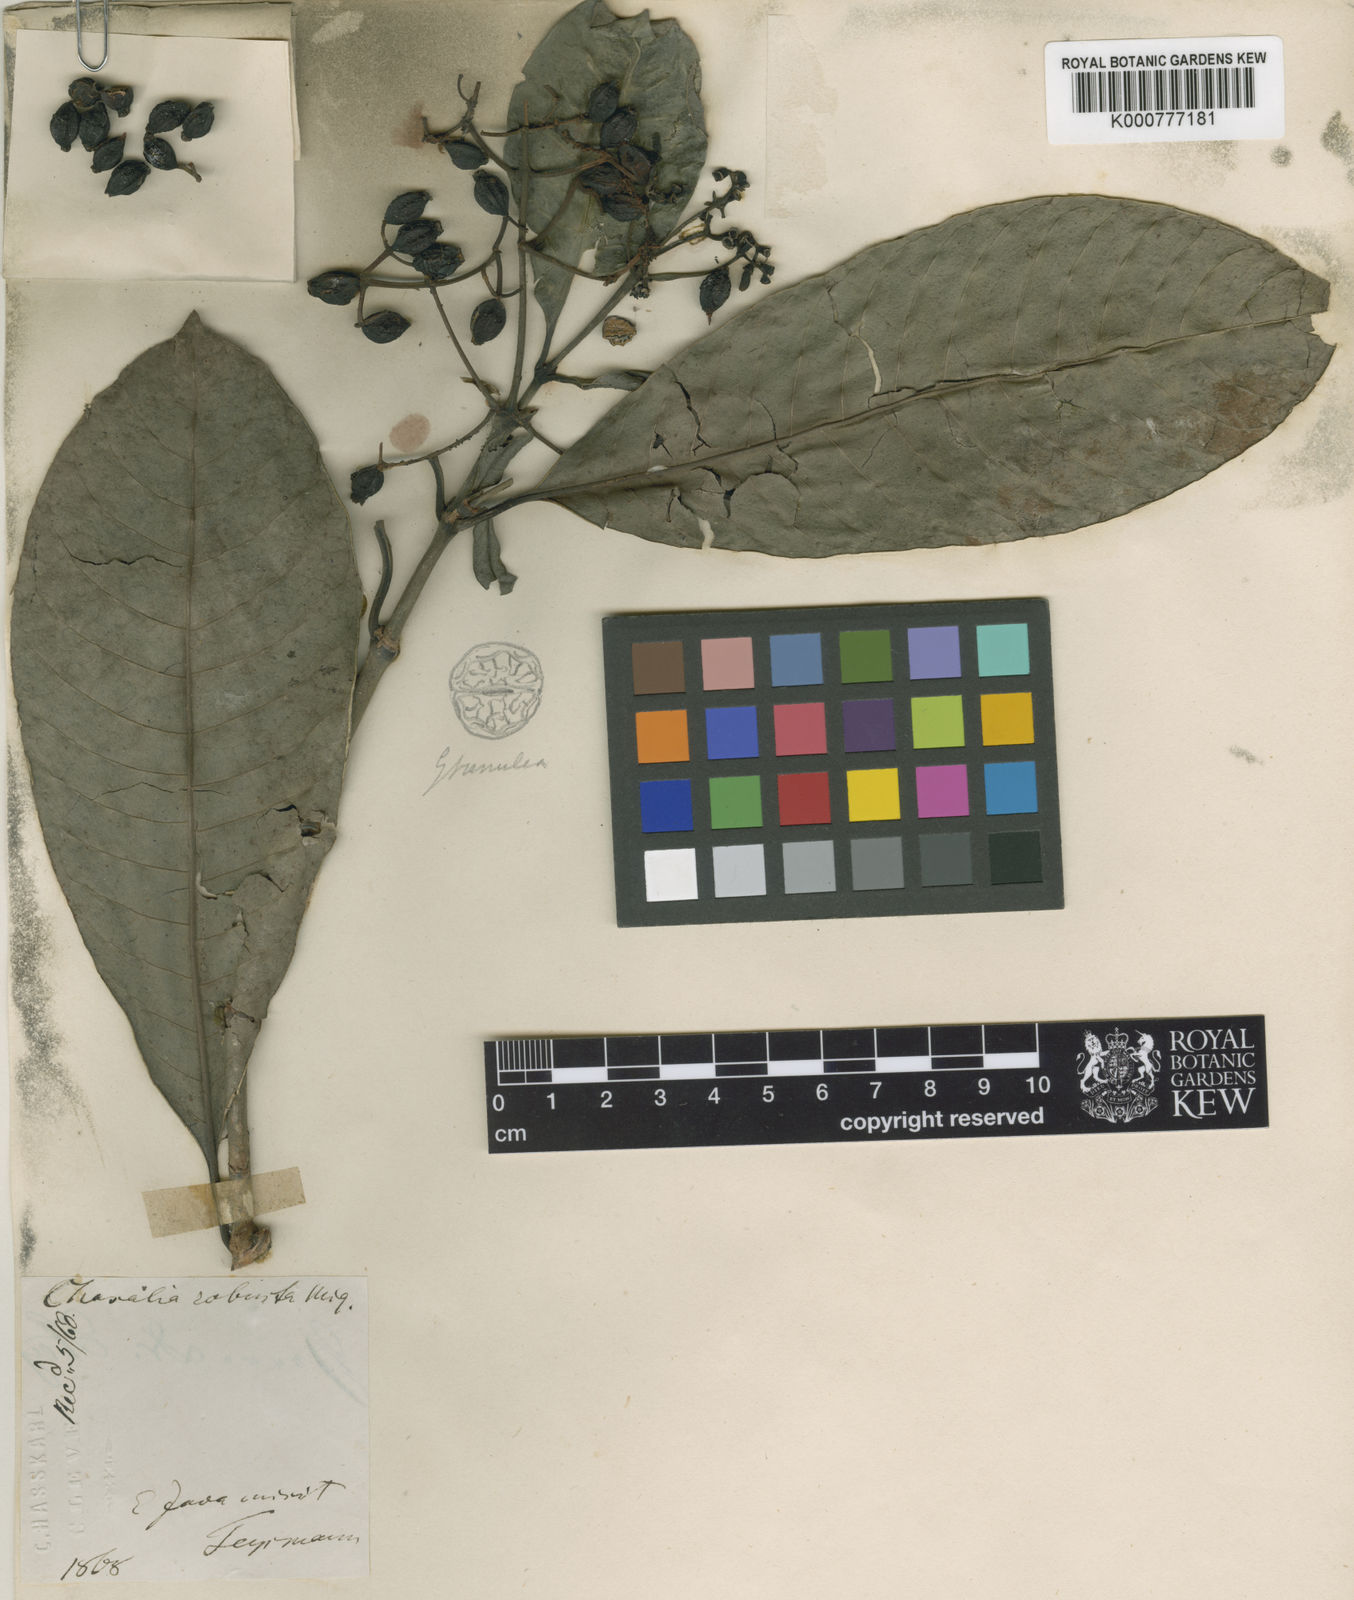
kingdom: Plantae
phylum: Tracheophyta
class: Magnoliopsida
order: Gentianales
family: Rubiaceae
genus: Psychotria
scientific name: Psychotria robusta
